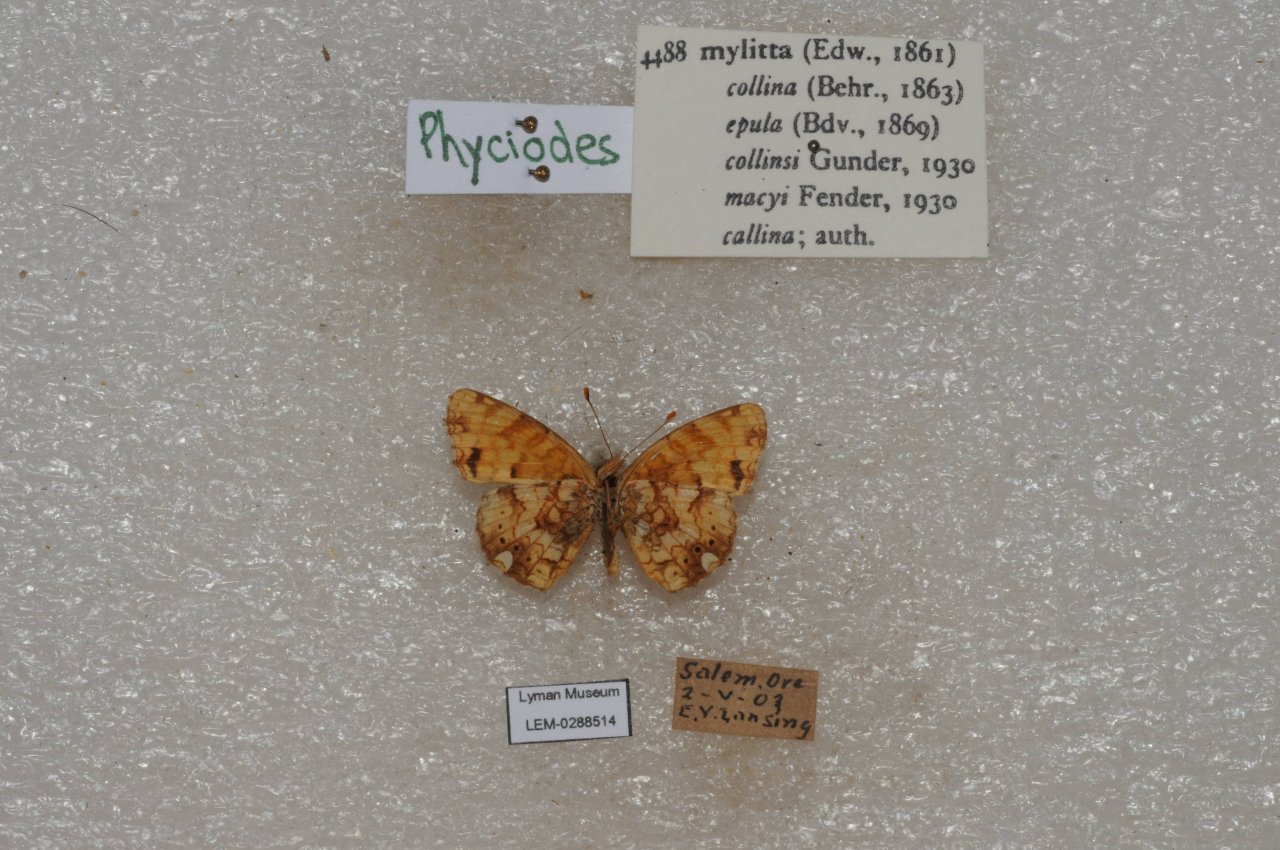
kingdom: Animalia
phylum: Arthropoda
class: Insecta
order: Lepidoptera
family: Nymphalidae
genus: Eresia
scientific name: Eresia aveyrona
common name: Mylitta Crescent
